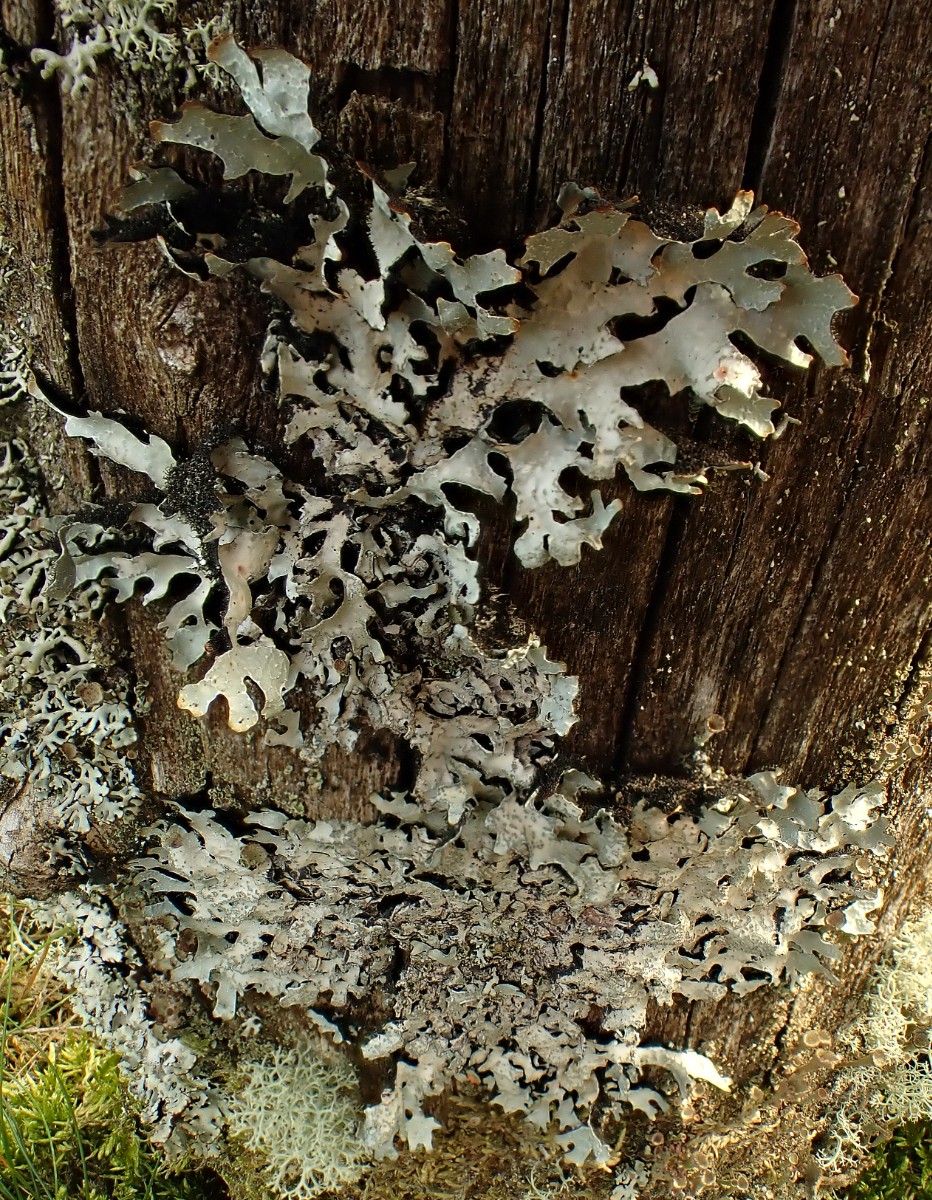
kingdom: Fungi
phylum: Ascomycota
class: Lecanoromycetes
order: Lecanorales
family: Parmeliaceae
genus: Parmelia
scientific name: Parmelia sulcata
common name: rynket skållav
